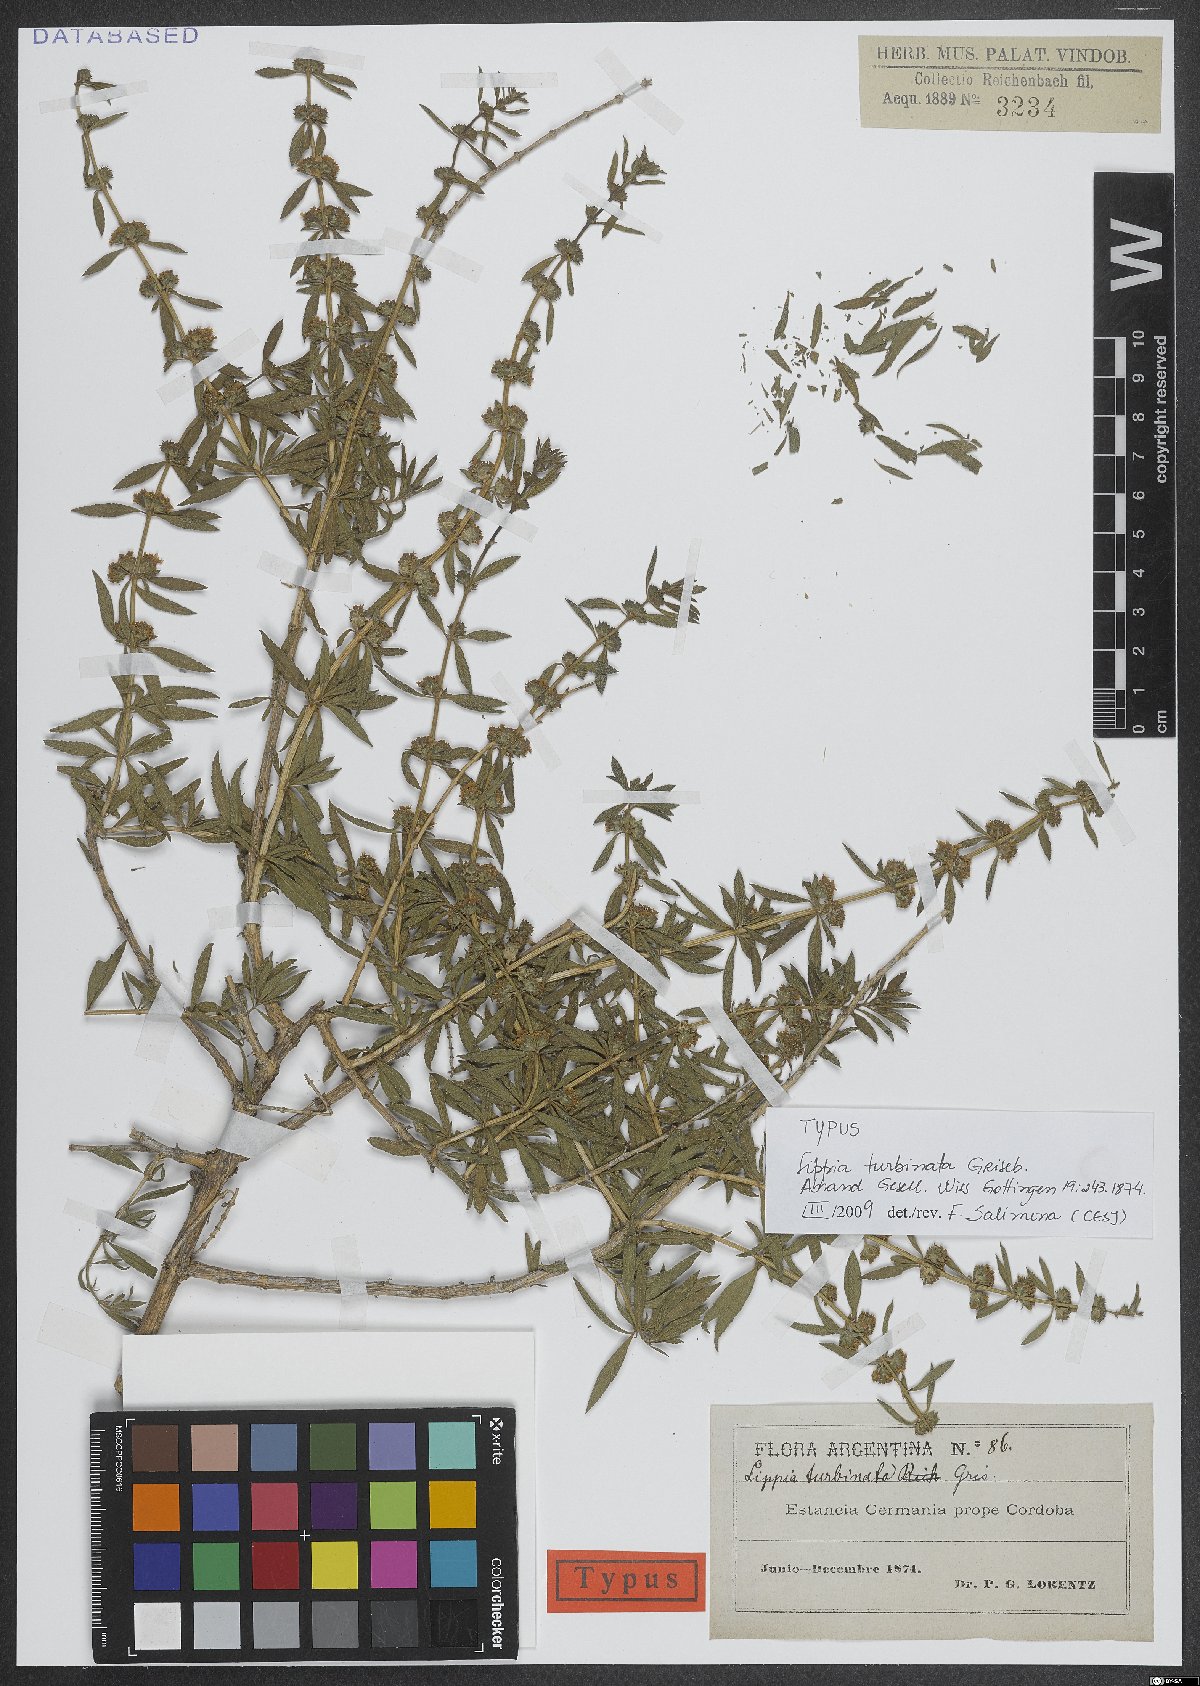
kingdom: Plantae
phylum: Tracheophyta
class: Magnoliopsida
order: Lamiales
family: Verbenaceae
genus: Lippia
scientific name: Lippia turbinata
